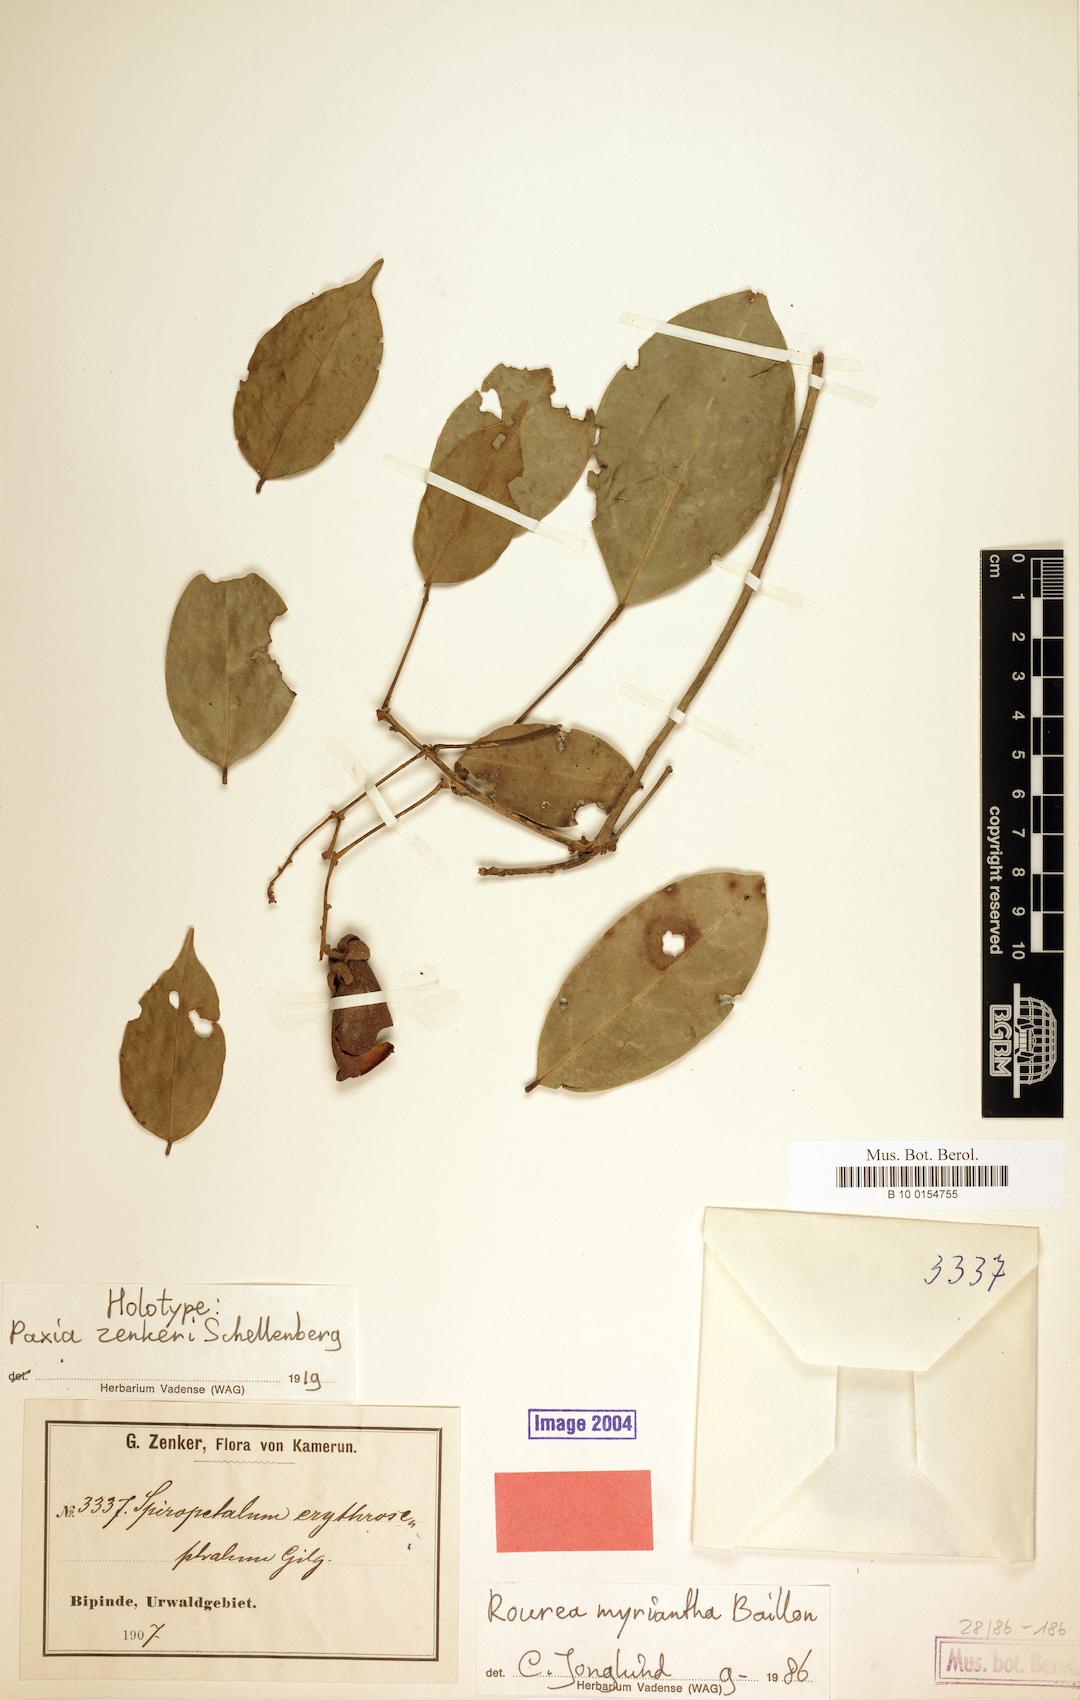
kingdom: Plantae
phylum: Tracheophyta
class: Magnoliopsida
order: Oxalidales
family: Connaraceae
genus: Rourea
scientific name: Rourea myriantha
